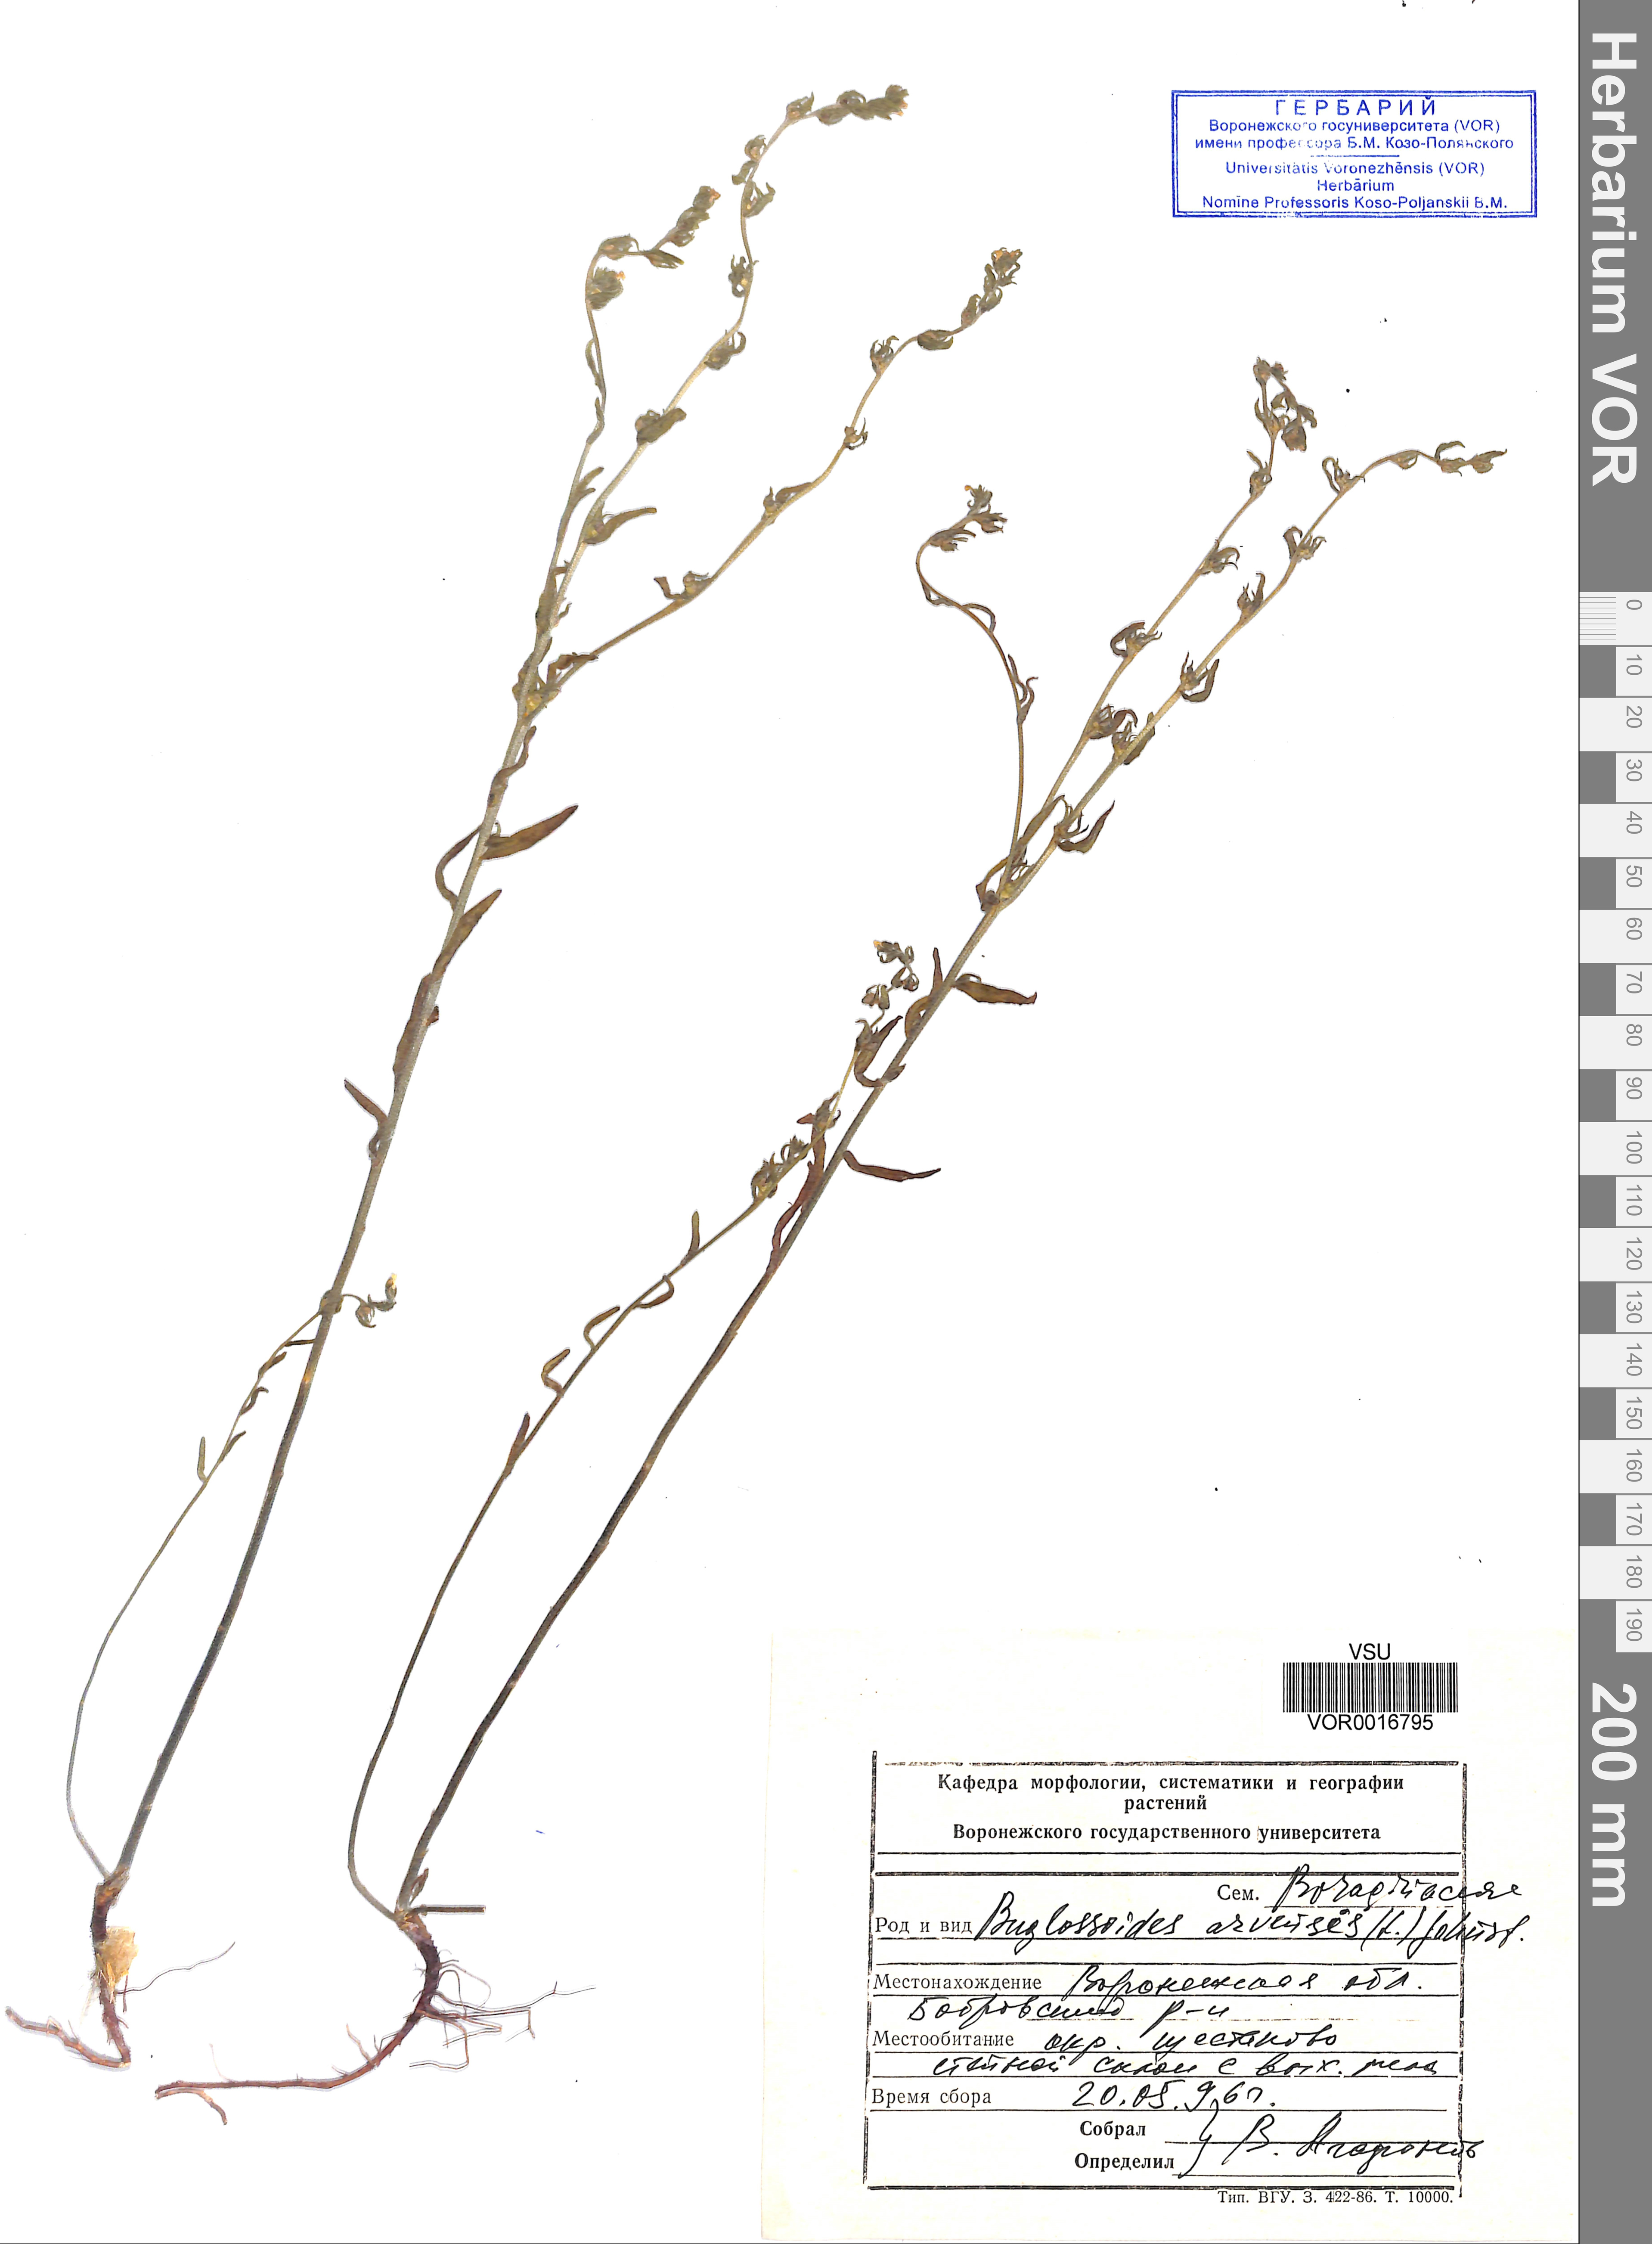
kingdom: Plantae
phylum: Tracheophyta
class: Magnoliopsida
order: Boraginales
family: Boraginaceae
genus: Buglossoides
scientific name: Buglossoides arvensis
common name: Corn gromwell
